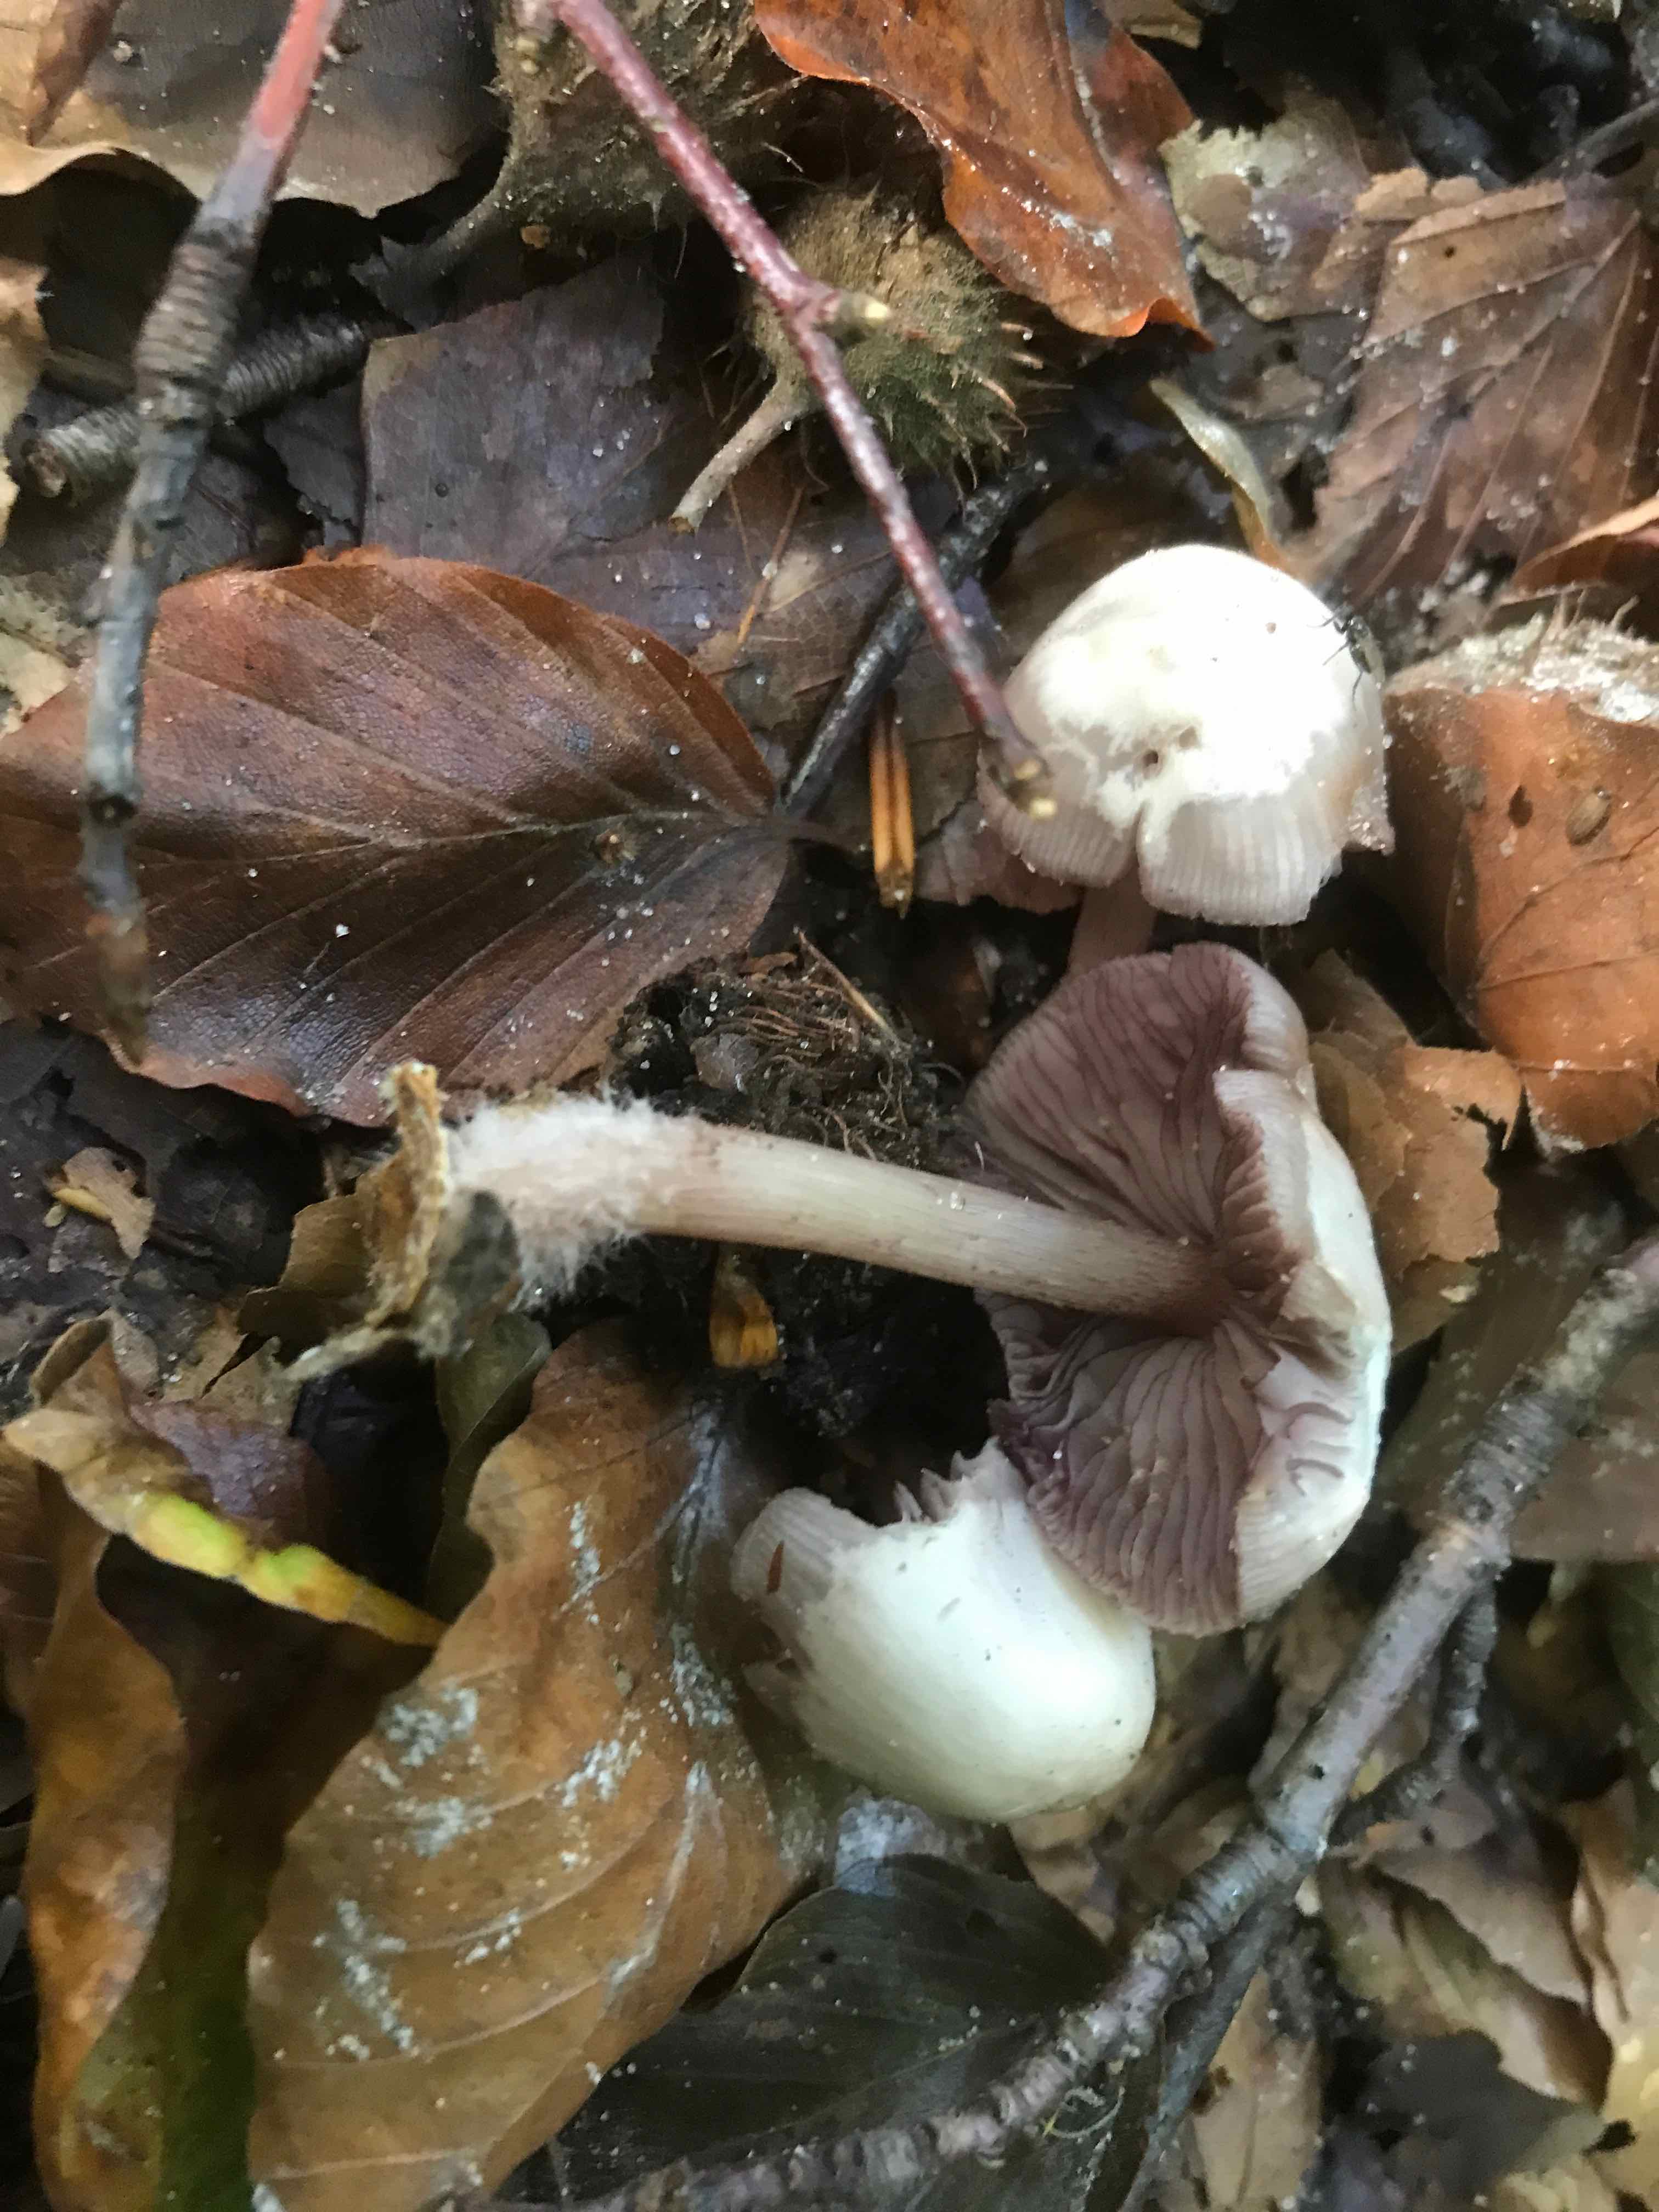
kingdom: Fungi
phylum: Basidiomycota
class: Agaricomycetes
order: Agaricales
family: Mycenaceae
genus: Mycena
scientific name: Mycena pelianthina
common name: mørkbladet huesvamp
